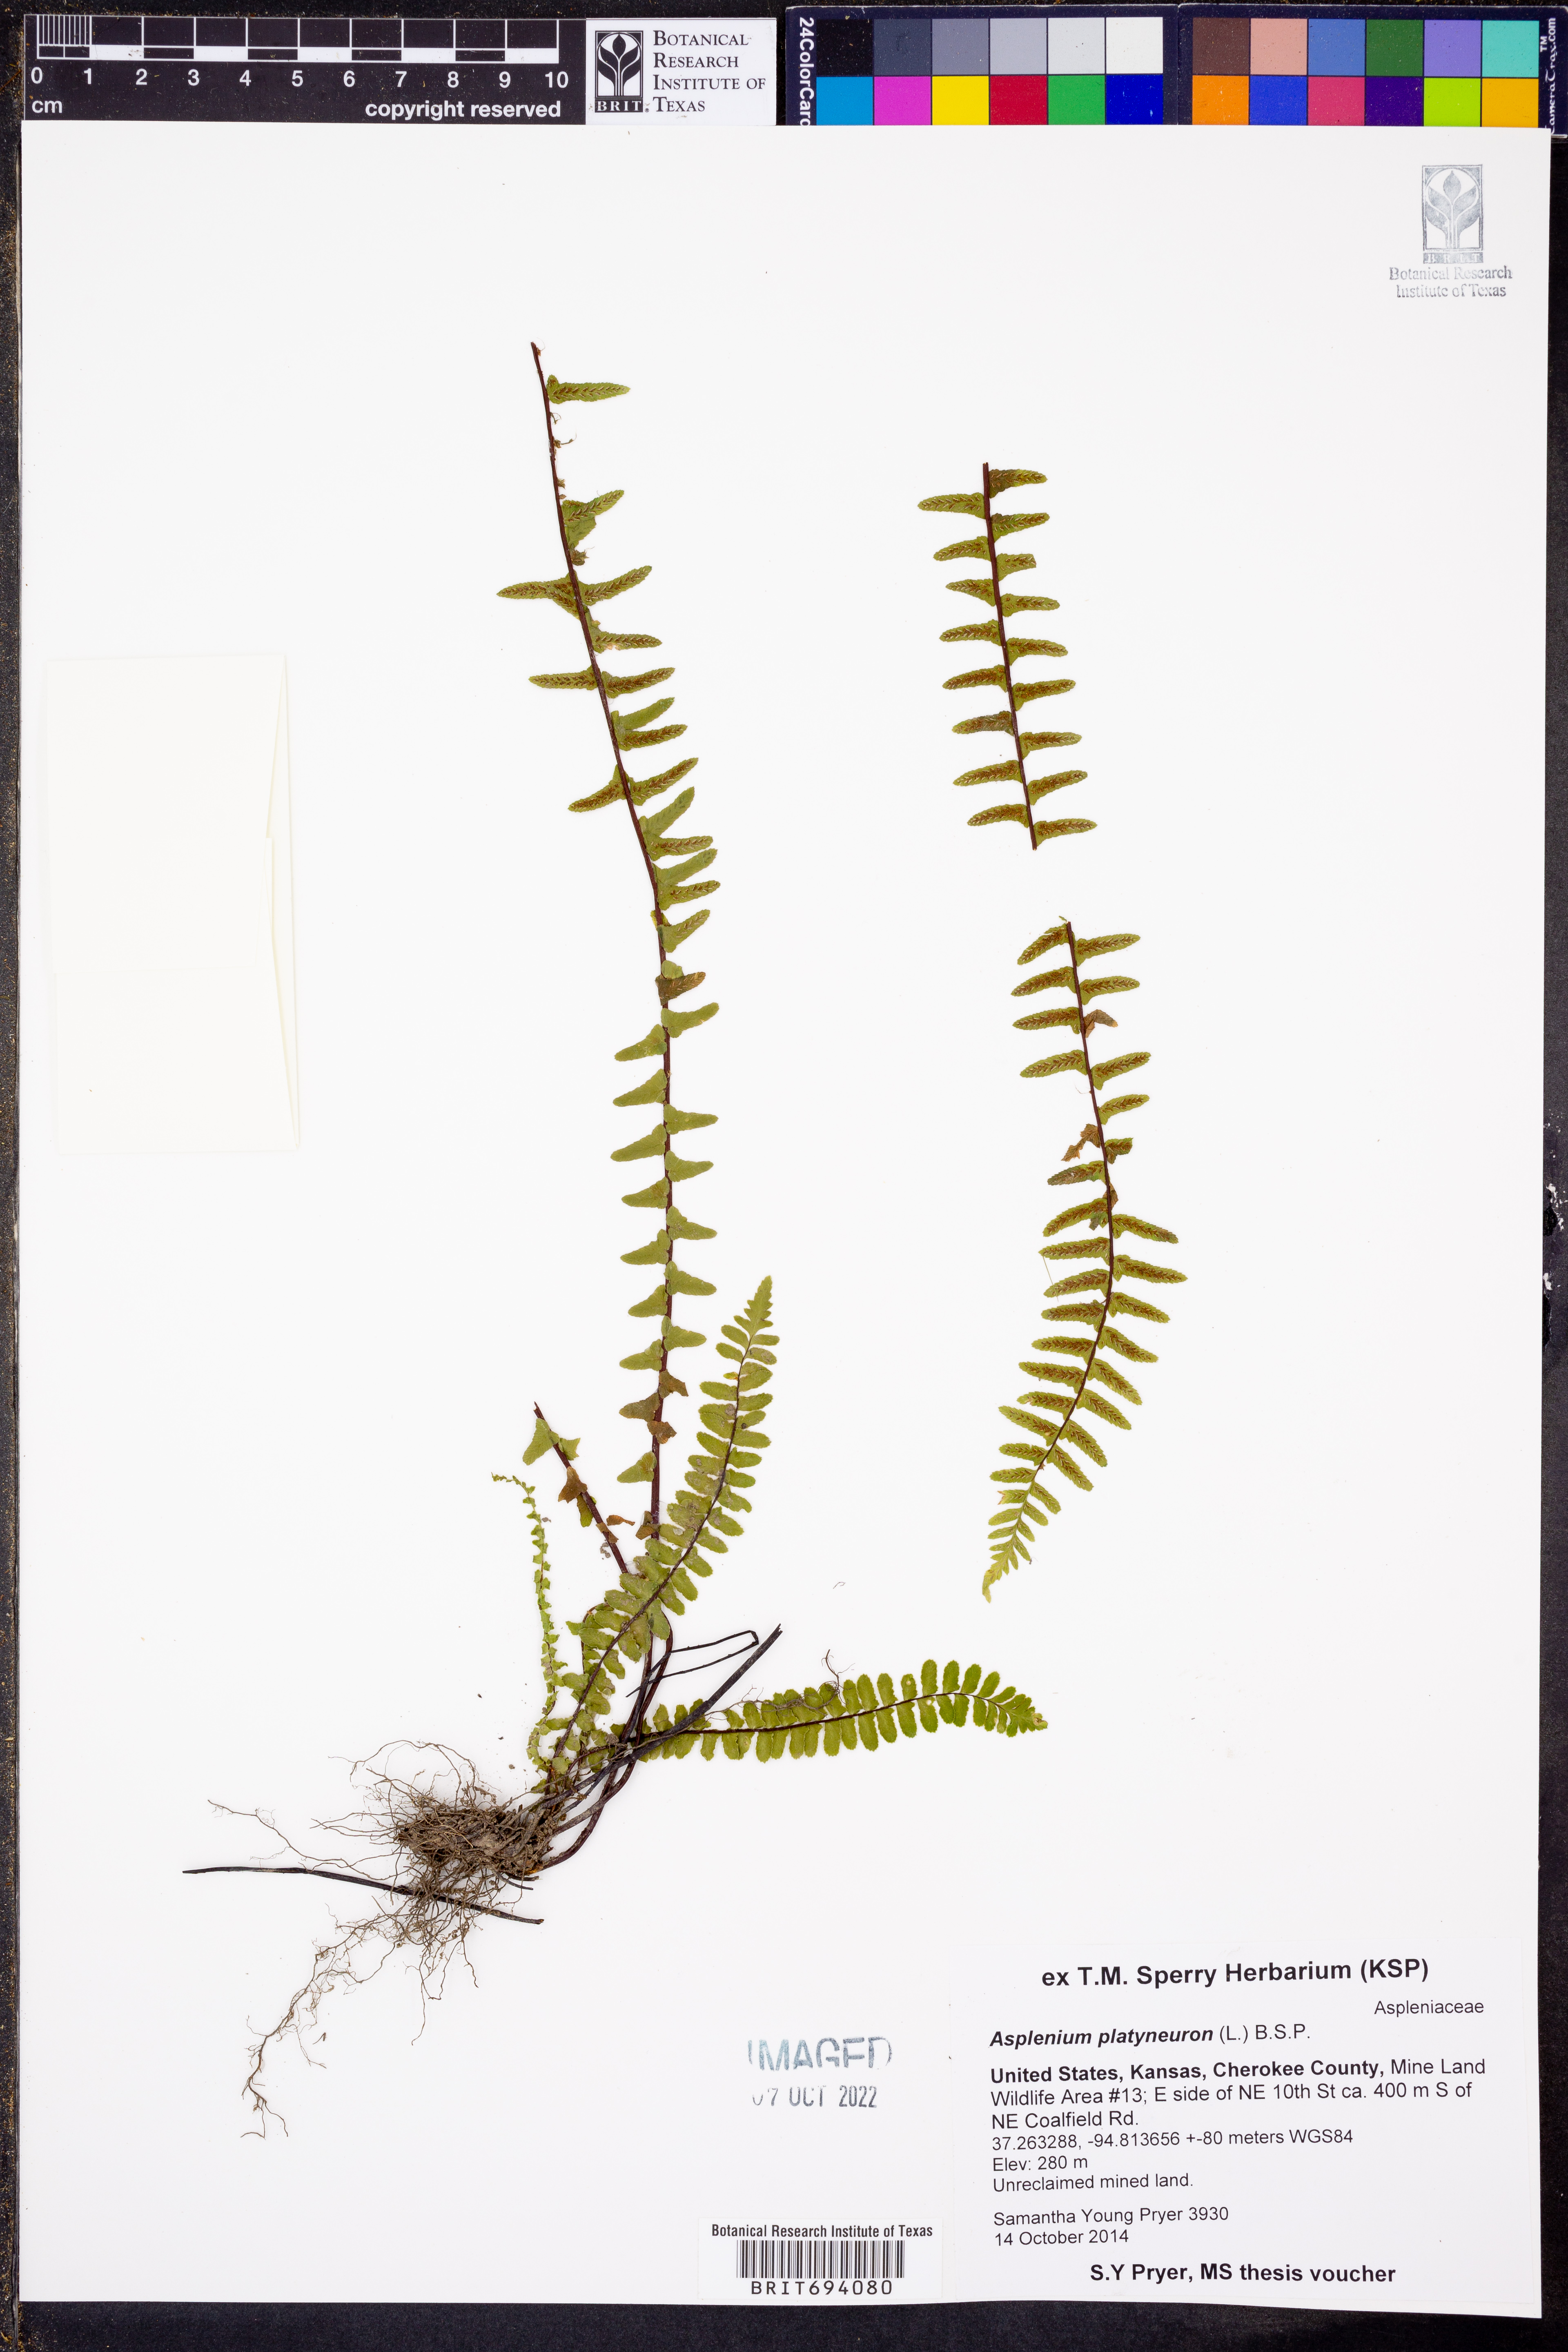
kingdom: Plantae
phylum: Tracheophyta
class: Polypodiopsida
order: Polypodiales
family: Aspleniaceae
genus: Asplenium
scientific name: Asplenium platyneuron
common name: Ebony spleenwort
